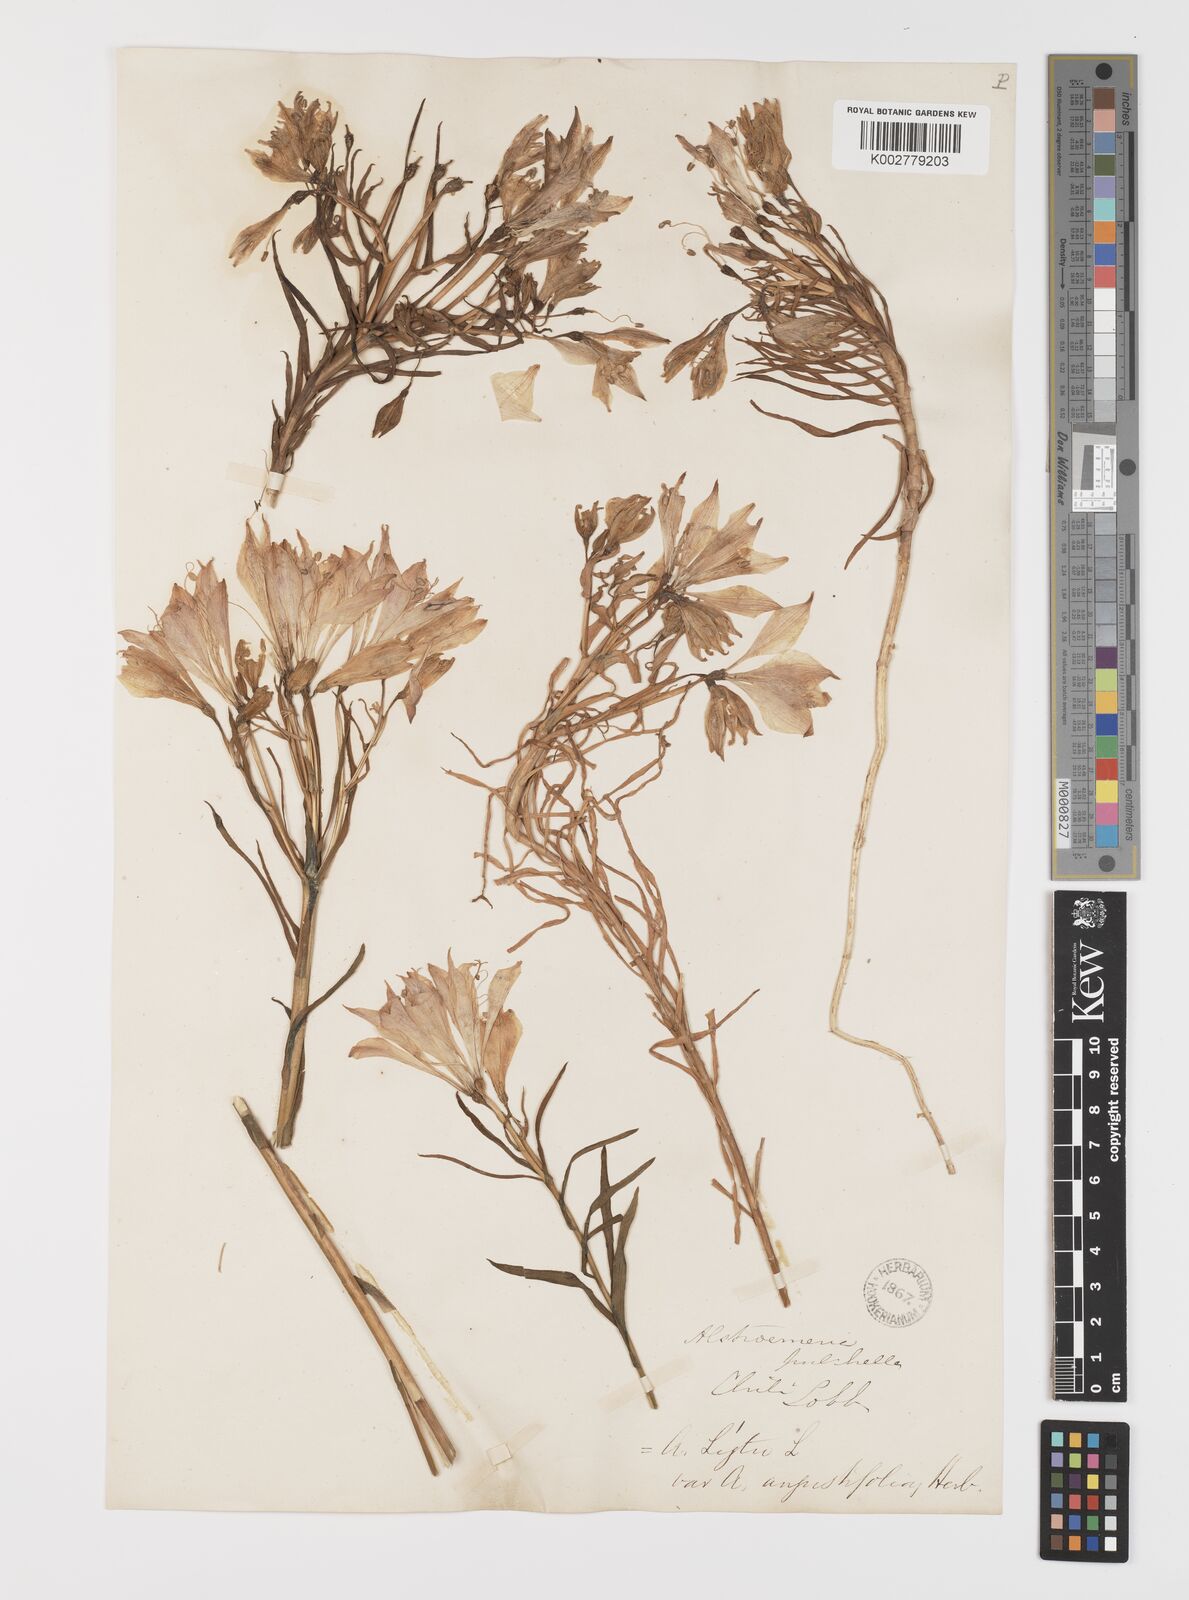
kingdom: Plantae
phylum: Tracheophyta
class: Liliopsida
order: Liliales
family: Alstroemeriaceae
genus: Alstroemeria
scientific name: Alstroemeria angustifolia
